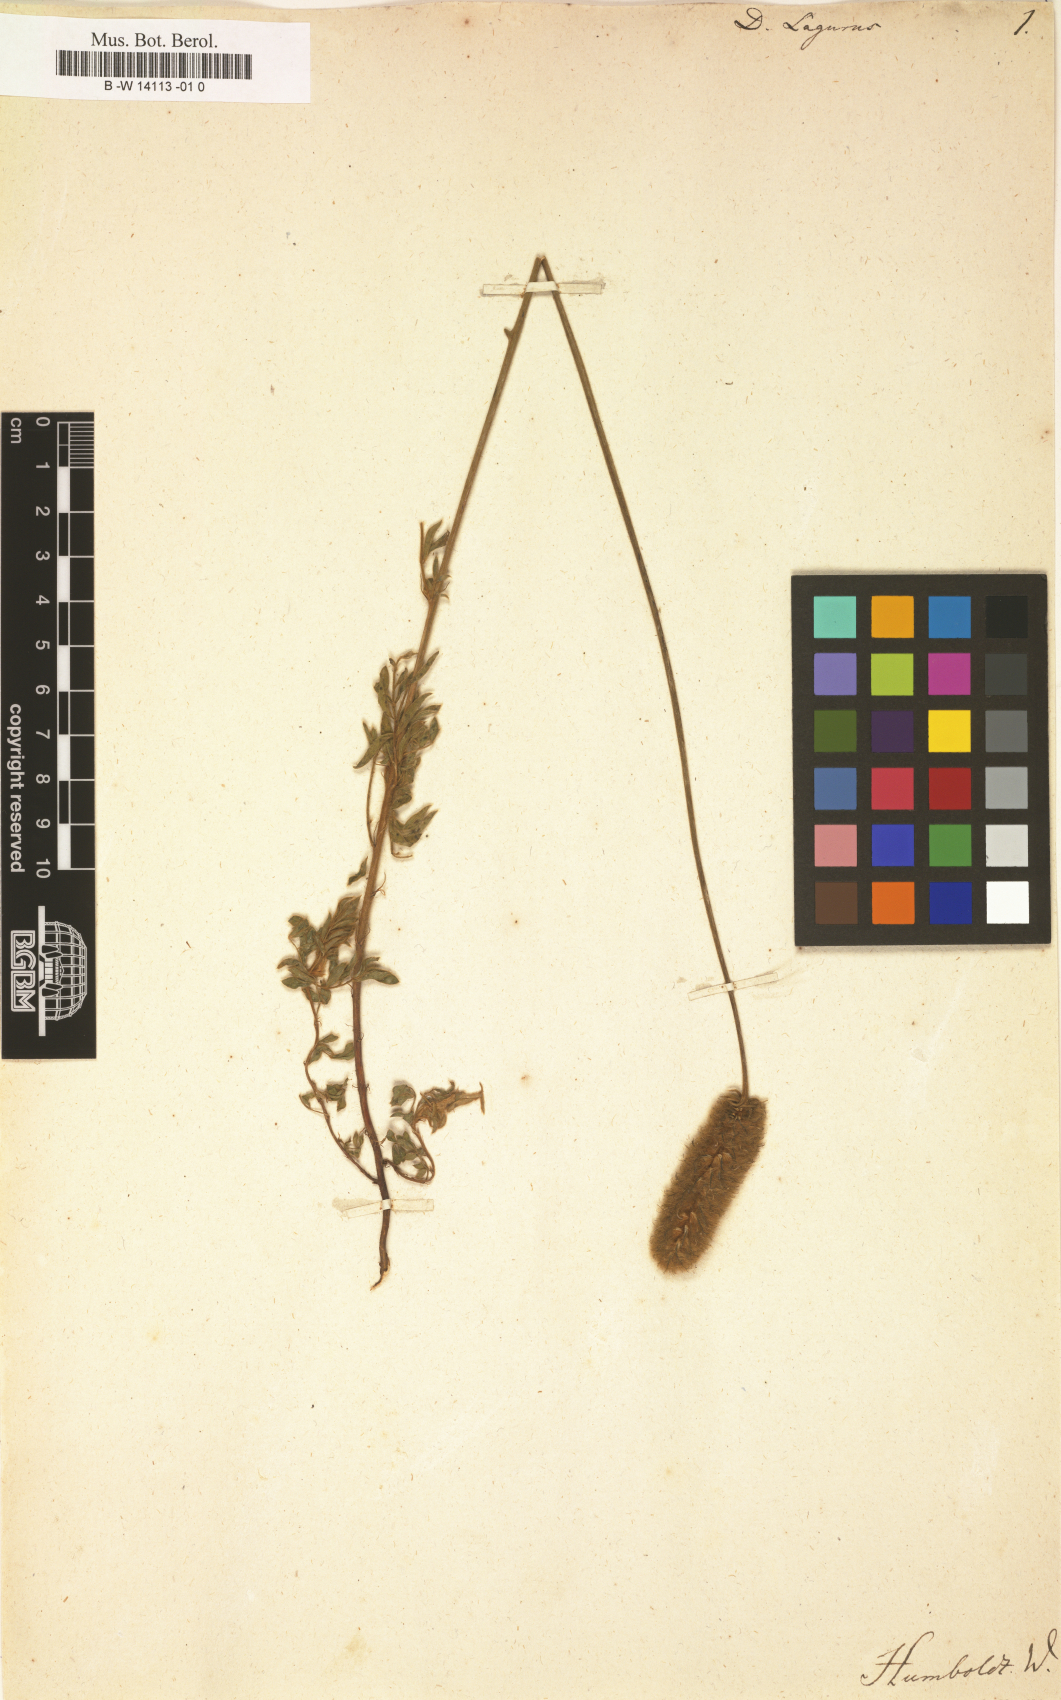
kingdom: Plantae
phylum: Tracheophyta
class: Magnoliopsida
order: Fabales
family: Fabaceae
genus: Dalea
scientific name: Dalea leporina
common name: Foxtail dalea
